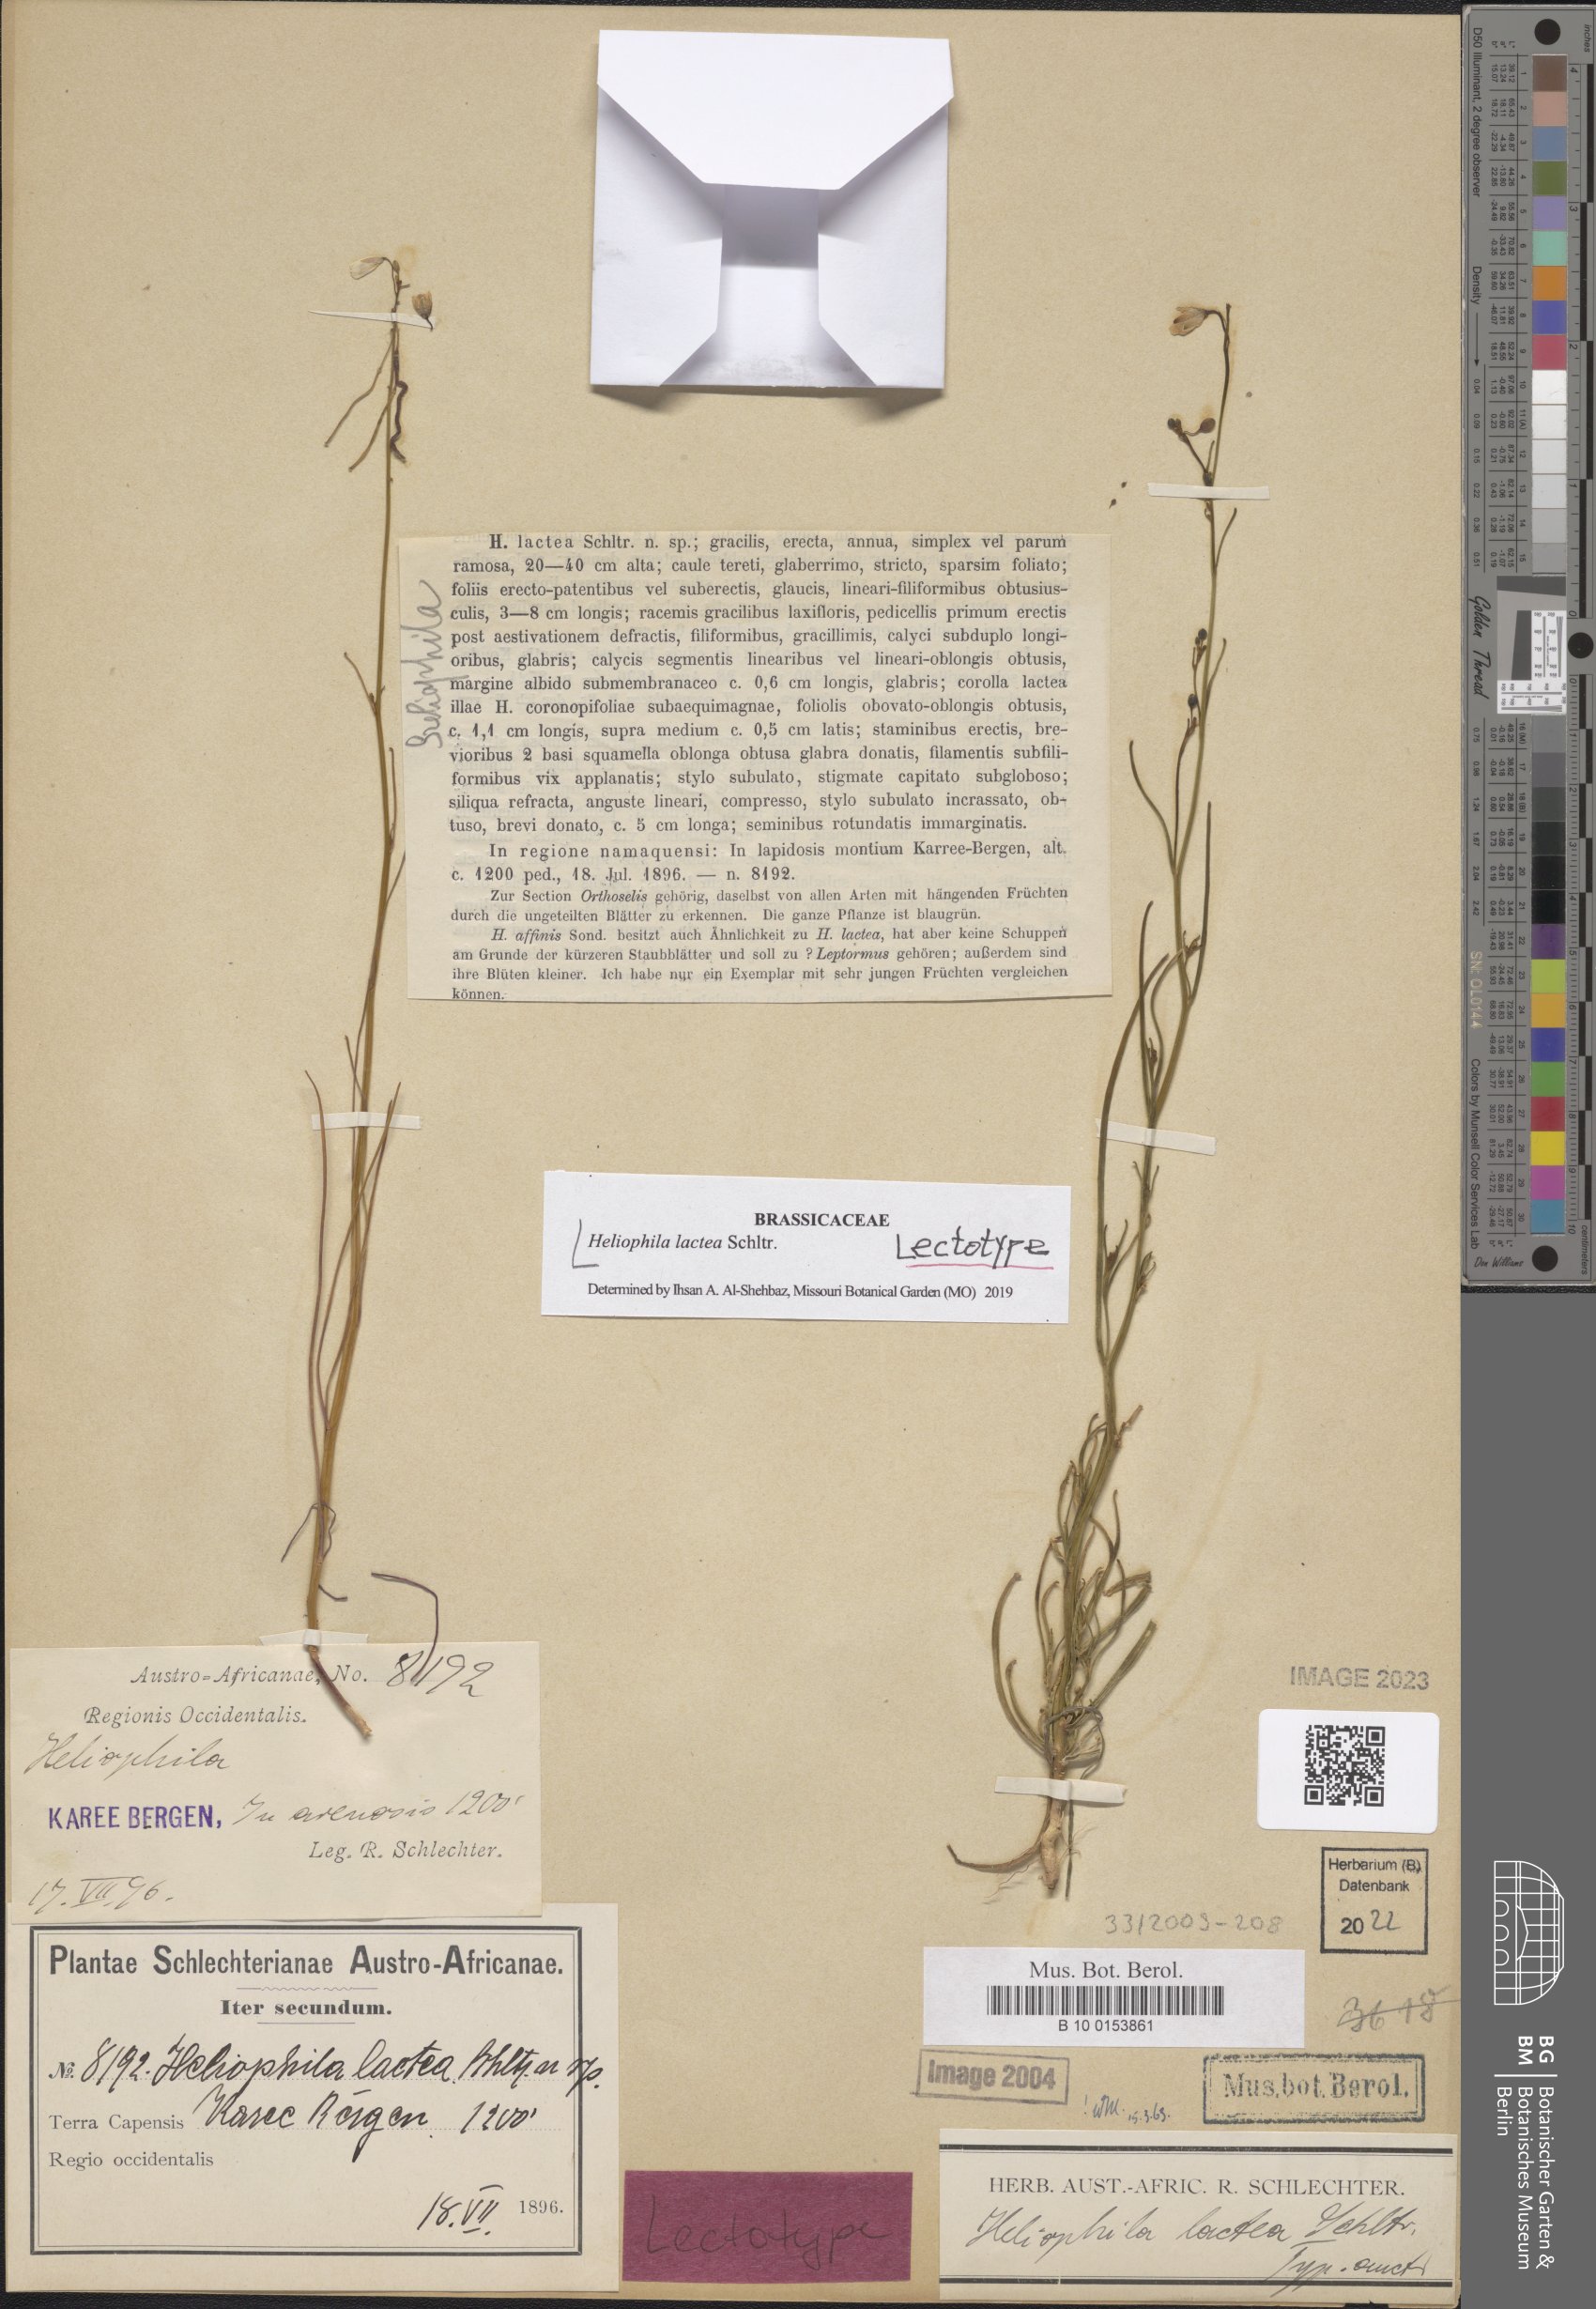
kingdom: Plantae
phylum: Tracheophyta
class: Magnoliopsida
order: Brassicales
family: Brassicaceae
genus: Heliophila
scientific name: Heliophila lactea
